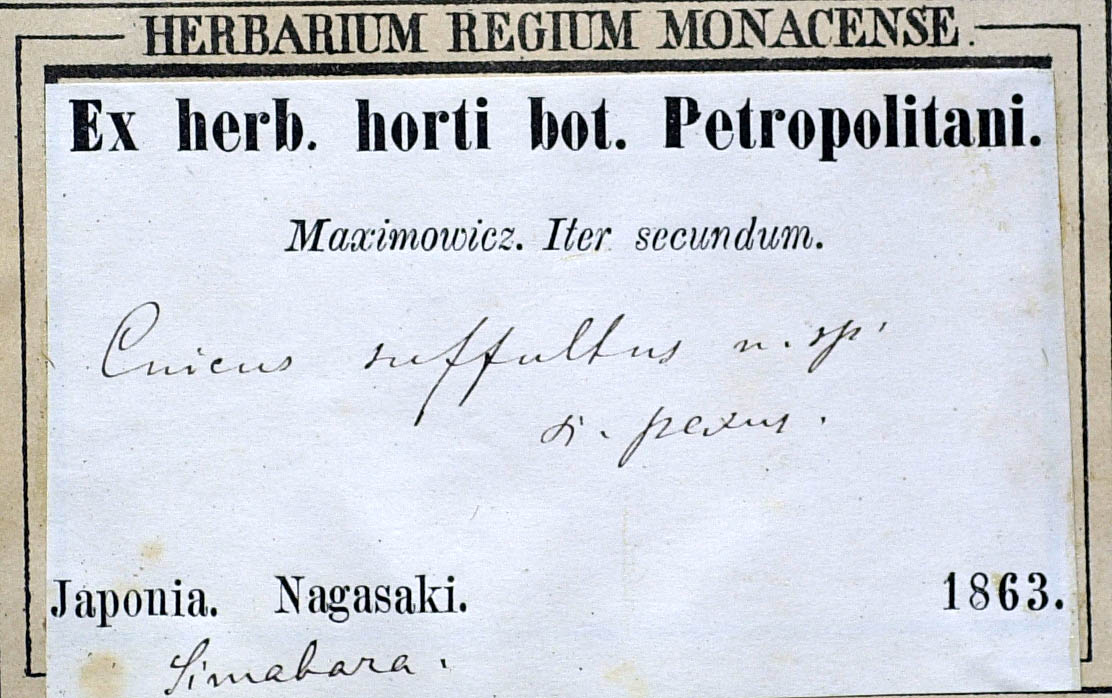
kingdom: Plantae
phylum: Tracheophyta
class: Magnoliopsida
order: Asterales
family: Asteraceae
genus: Cirsium
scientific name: Cirsium suffultum
